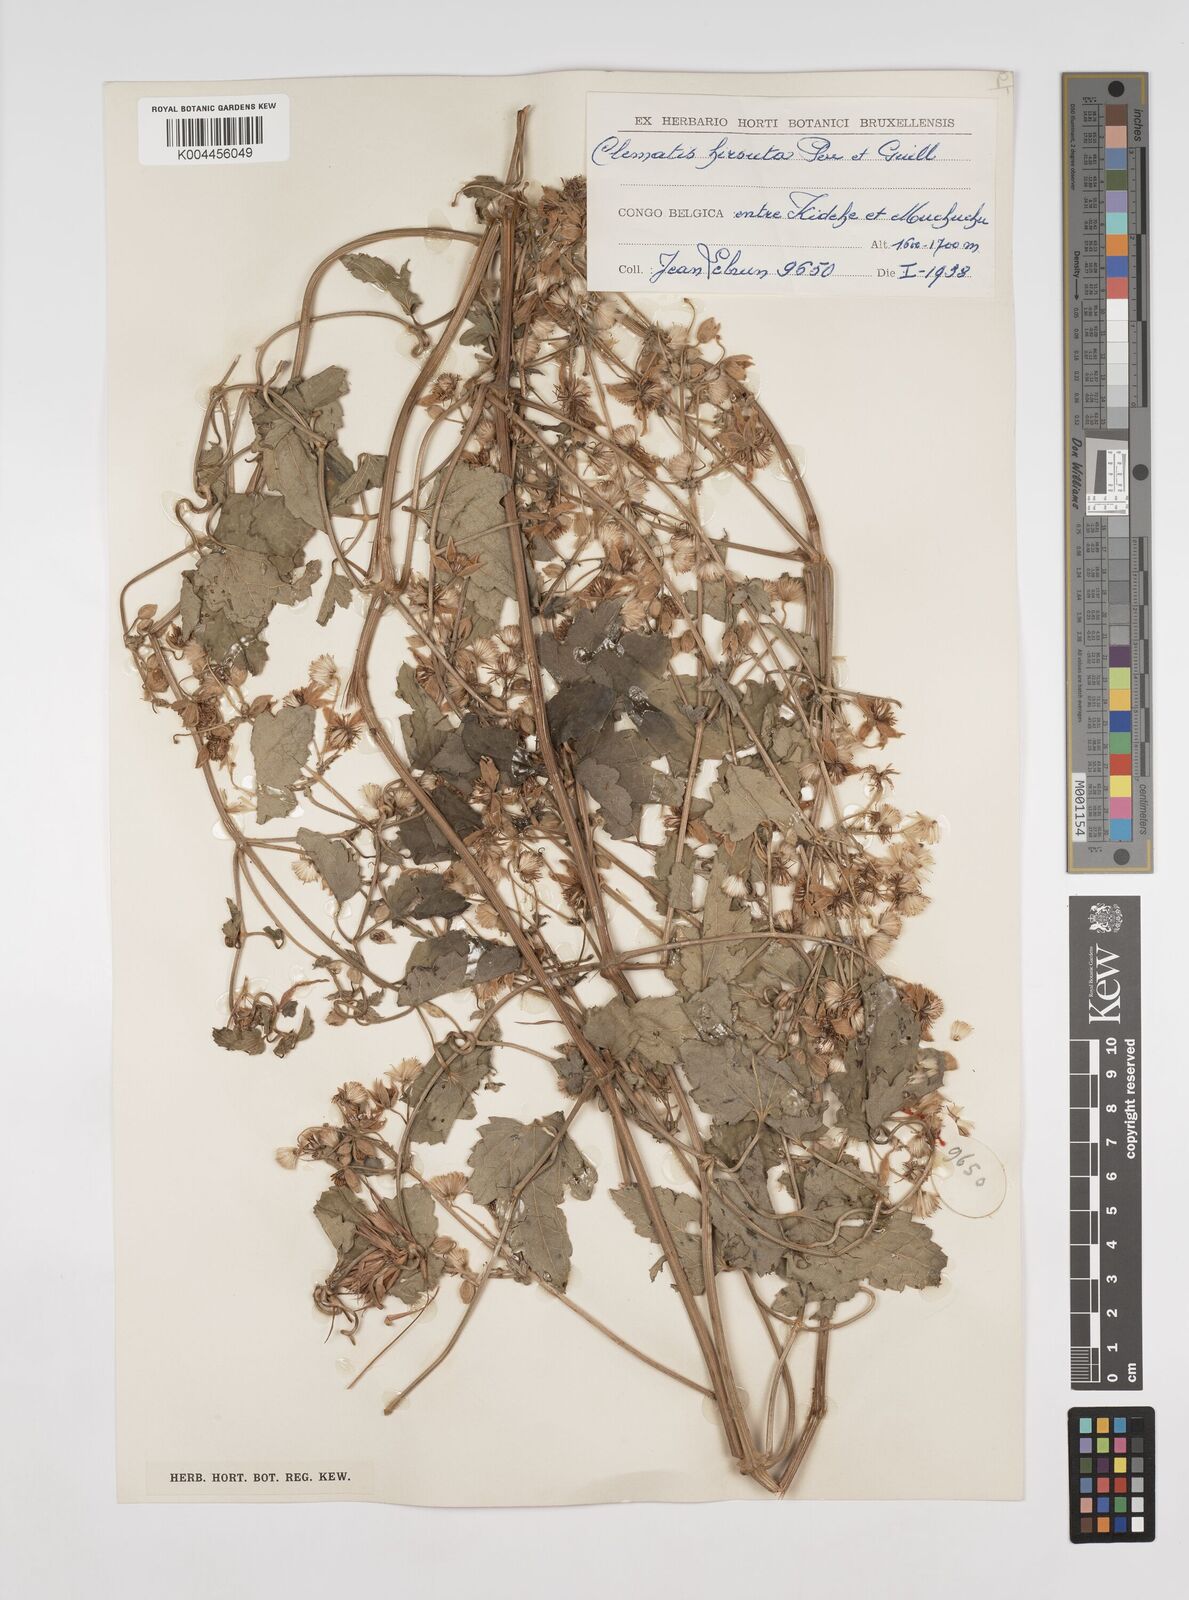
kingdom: Plantae
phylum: Tracheophyta
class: Magnoliopsida
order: Ranunculales
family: Ranunculaceae
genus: Clematis
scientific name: Clematis hirsuta
